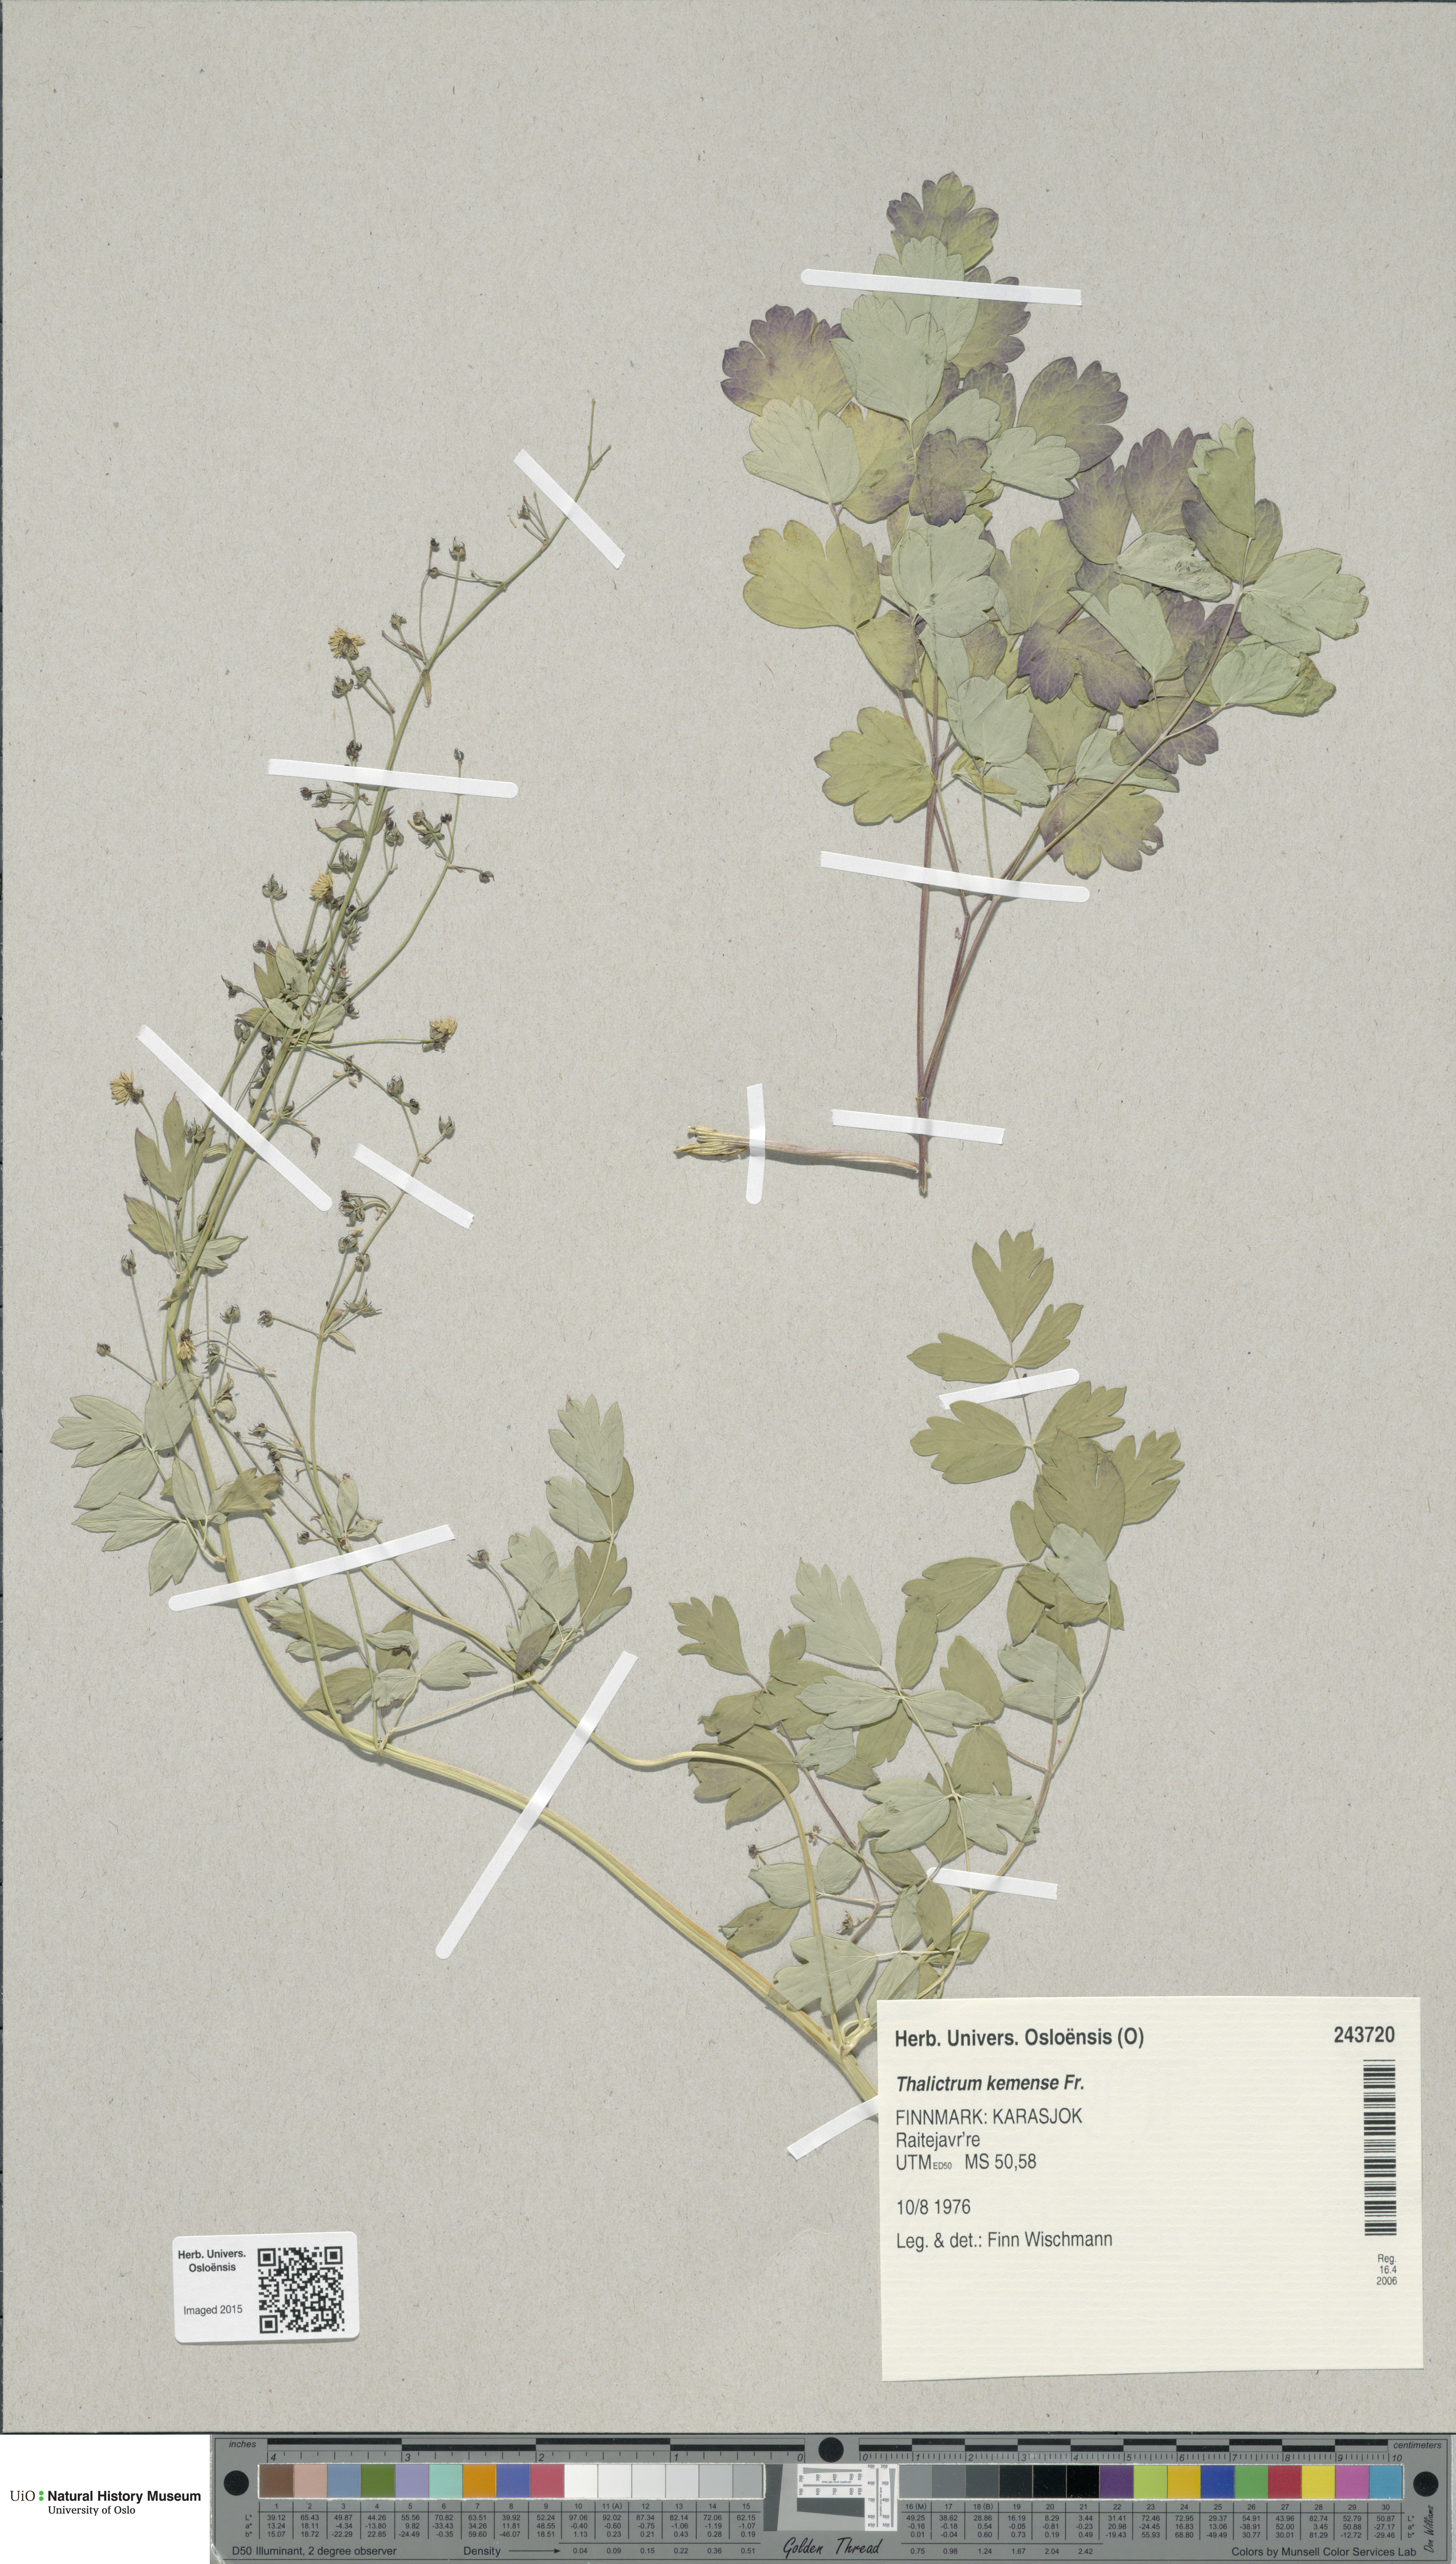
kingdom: Plantae
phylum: Tracheophyta
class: Magnoliopsida
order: Ranunculales
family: Ranunculaceae
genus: Thalictrum
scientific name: Thalictrum minus
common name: Lesser meadow-rue
